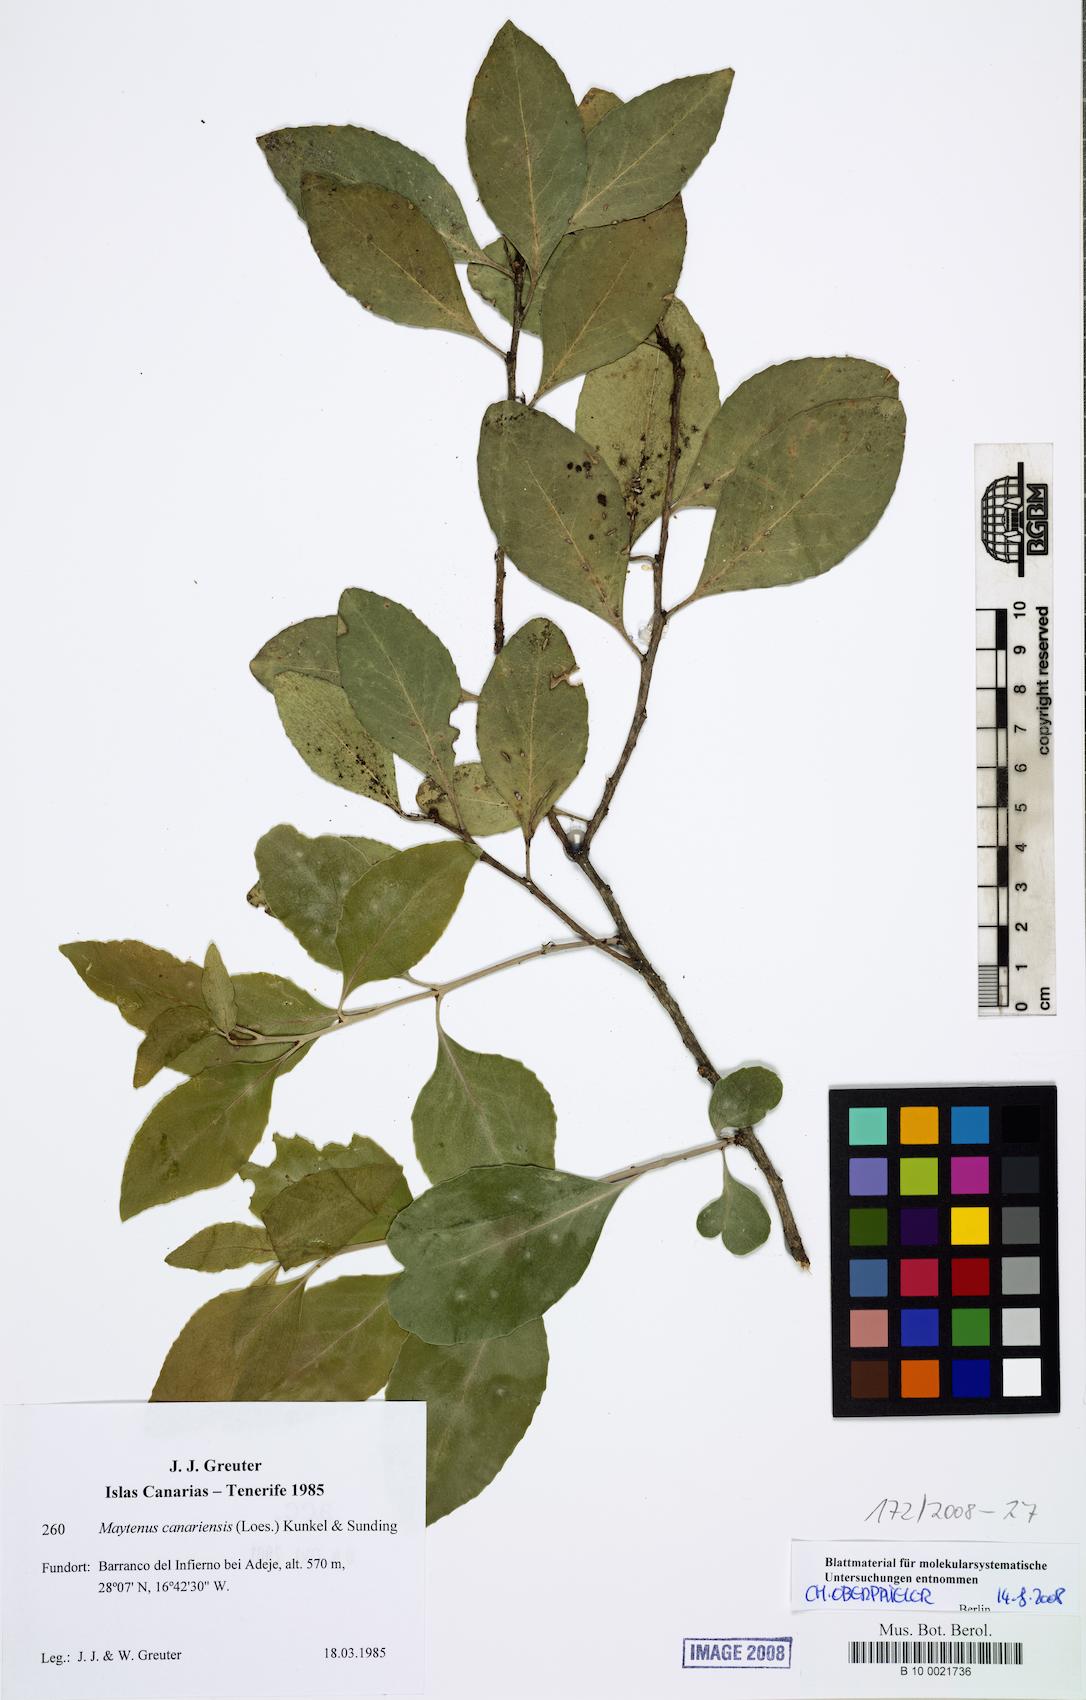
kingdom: Plantae
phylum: Tracheophyta
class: Magnoliopsida
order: Celastrales
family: Celastraceae
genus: Gymnosporia
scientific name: Gymnosporia cassinoides
